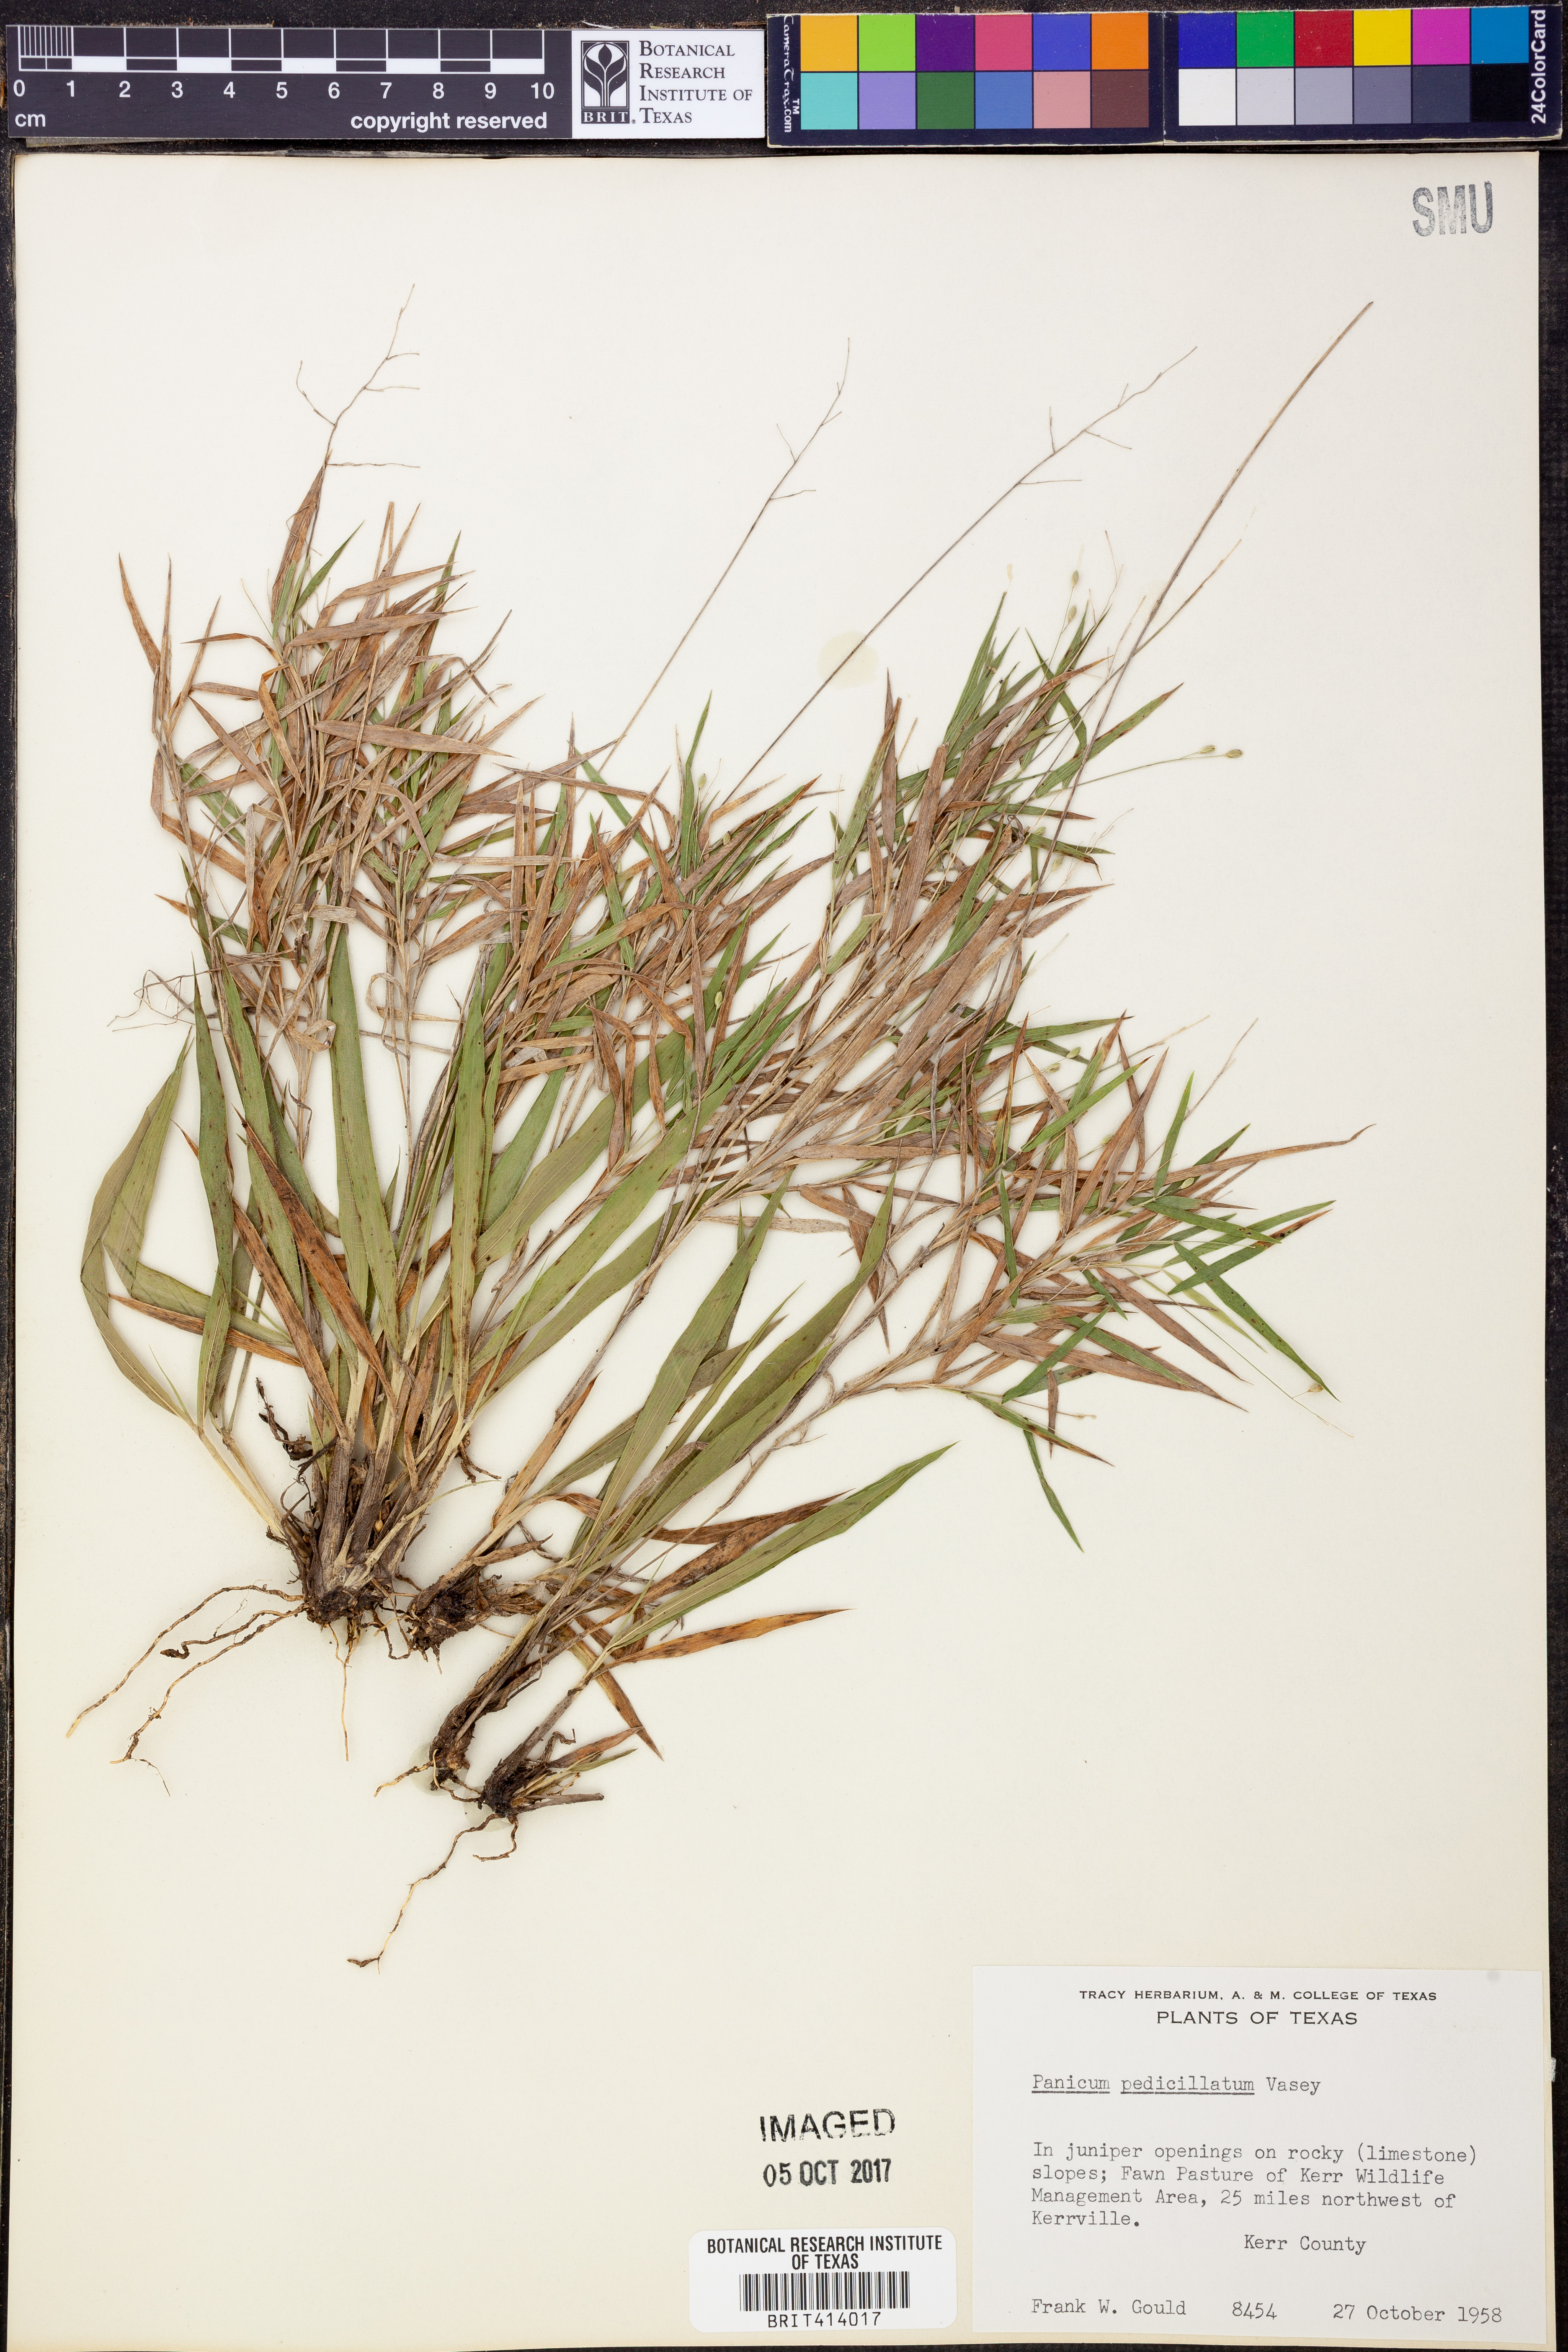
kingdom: Plantae
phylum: Tracheophyta
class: Liliopsida
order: Poales
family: Poaceae
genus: Dichanthelium
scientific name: Dichanthelium transiens
